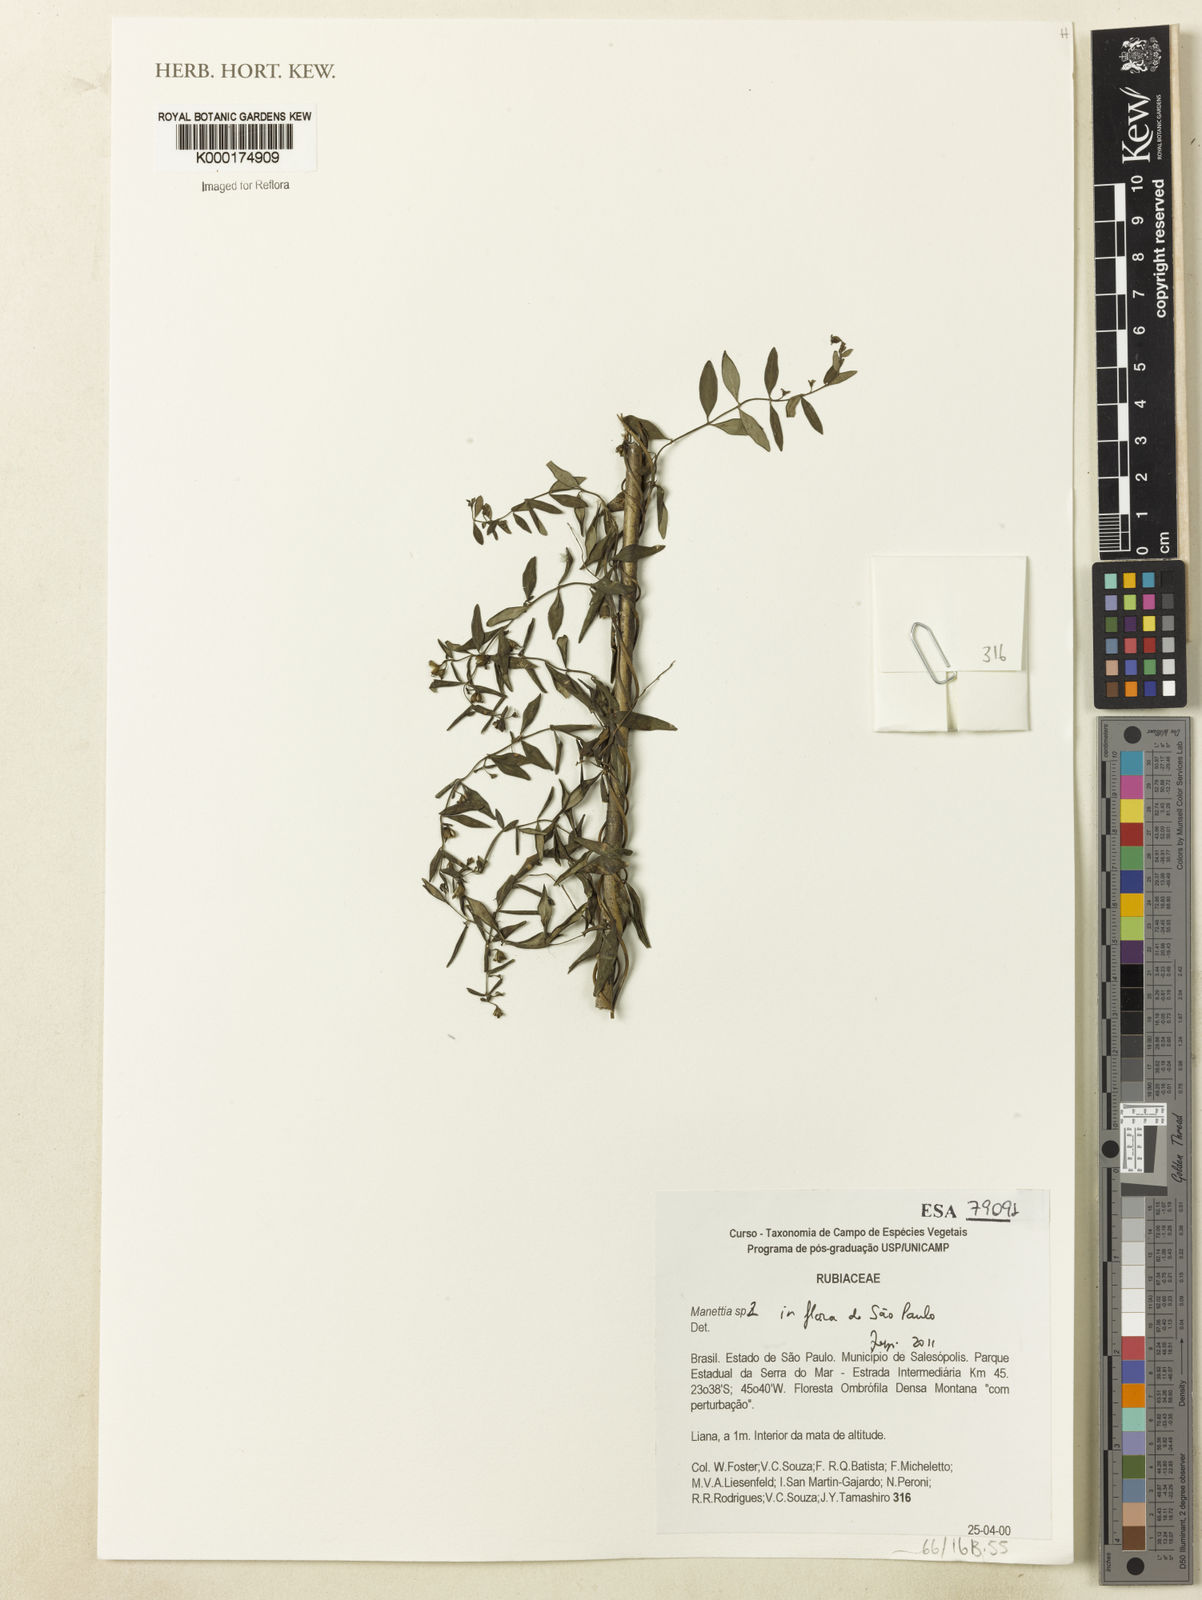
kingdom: Plantae
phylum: Tracheophyta
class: Magnoliopsida
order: Gentianales
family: Rubiaceae
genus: Manettia
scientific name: Manettia
